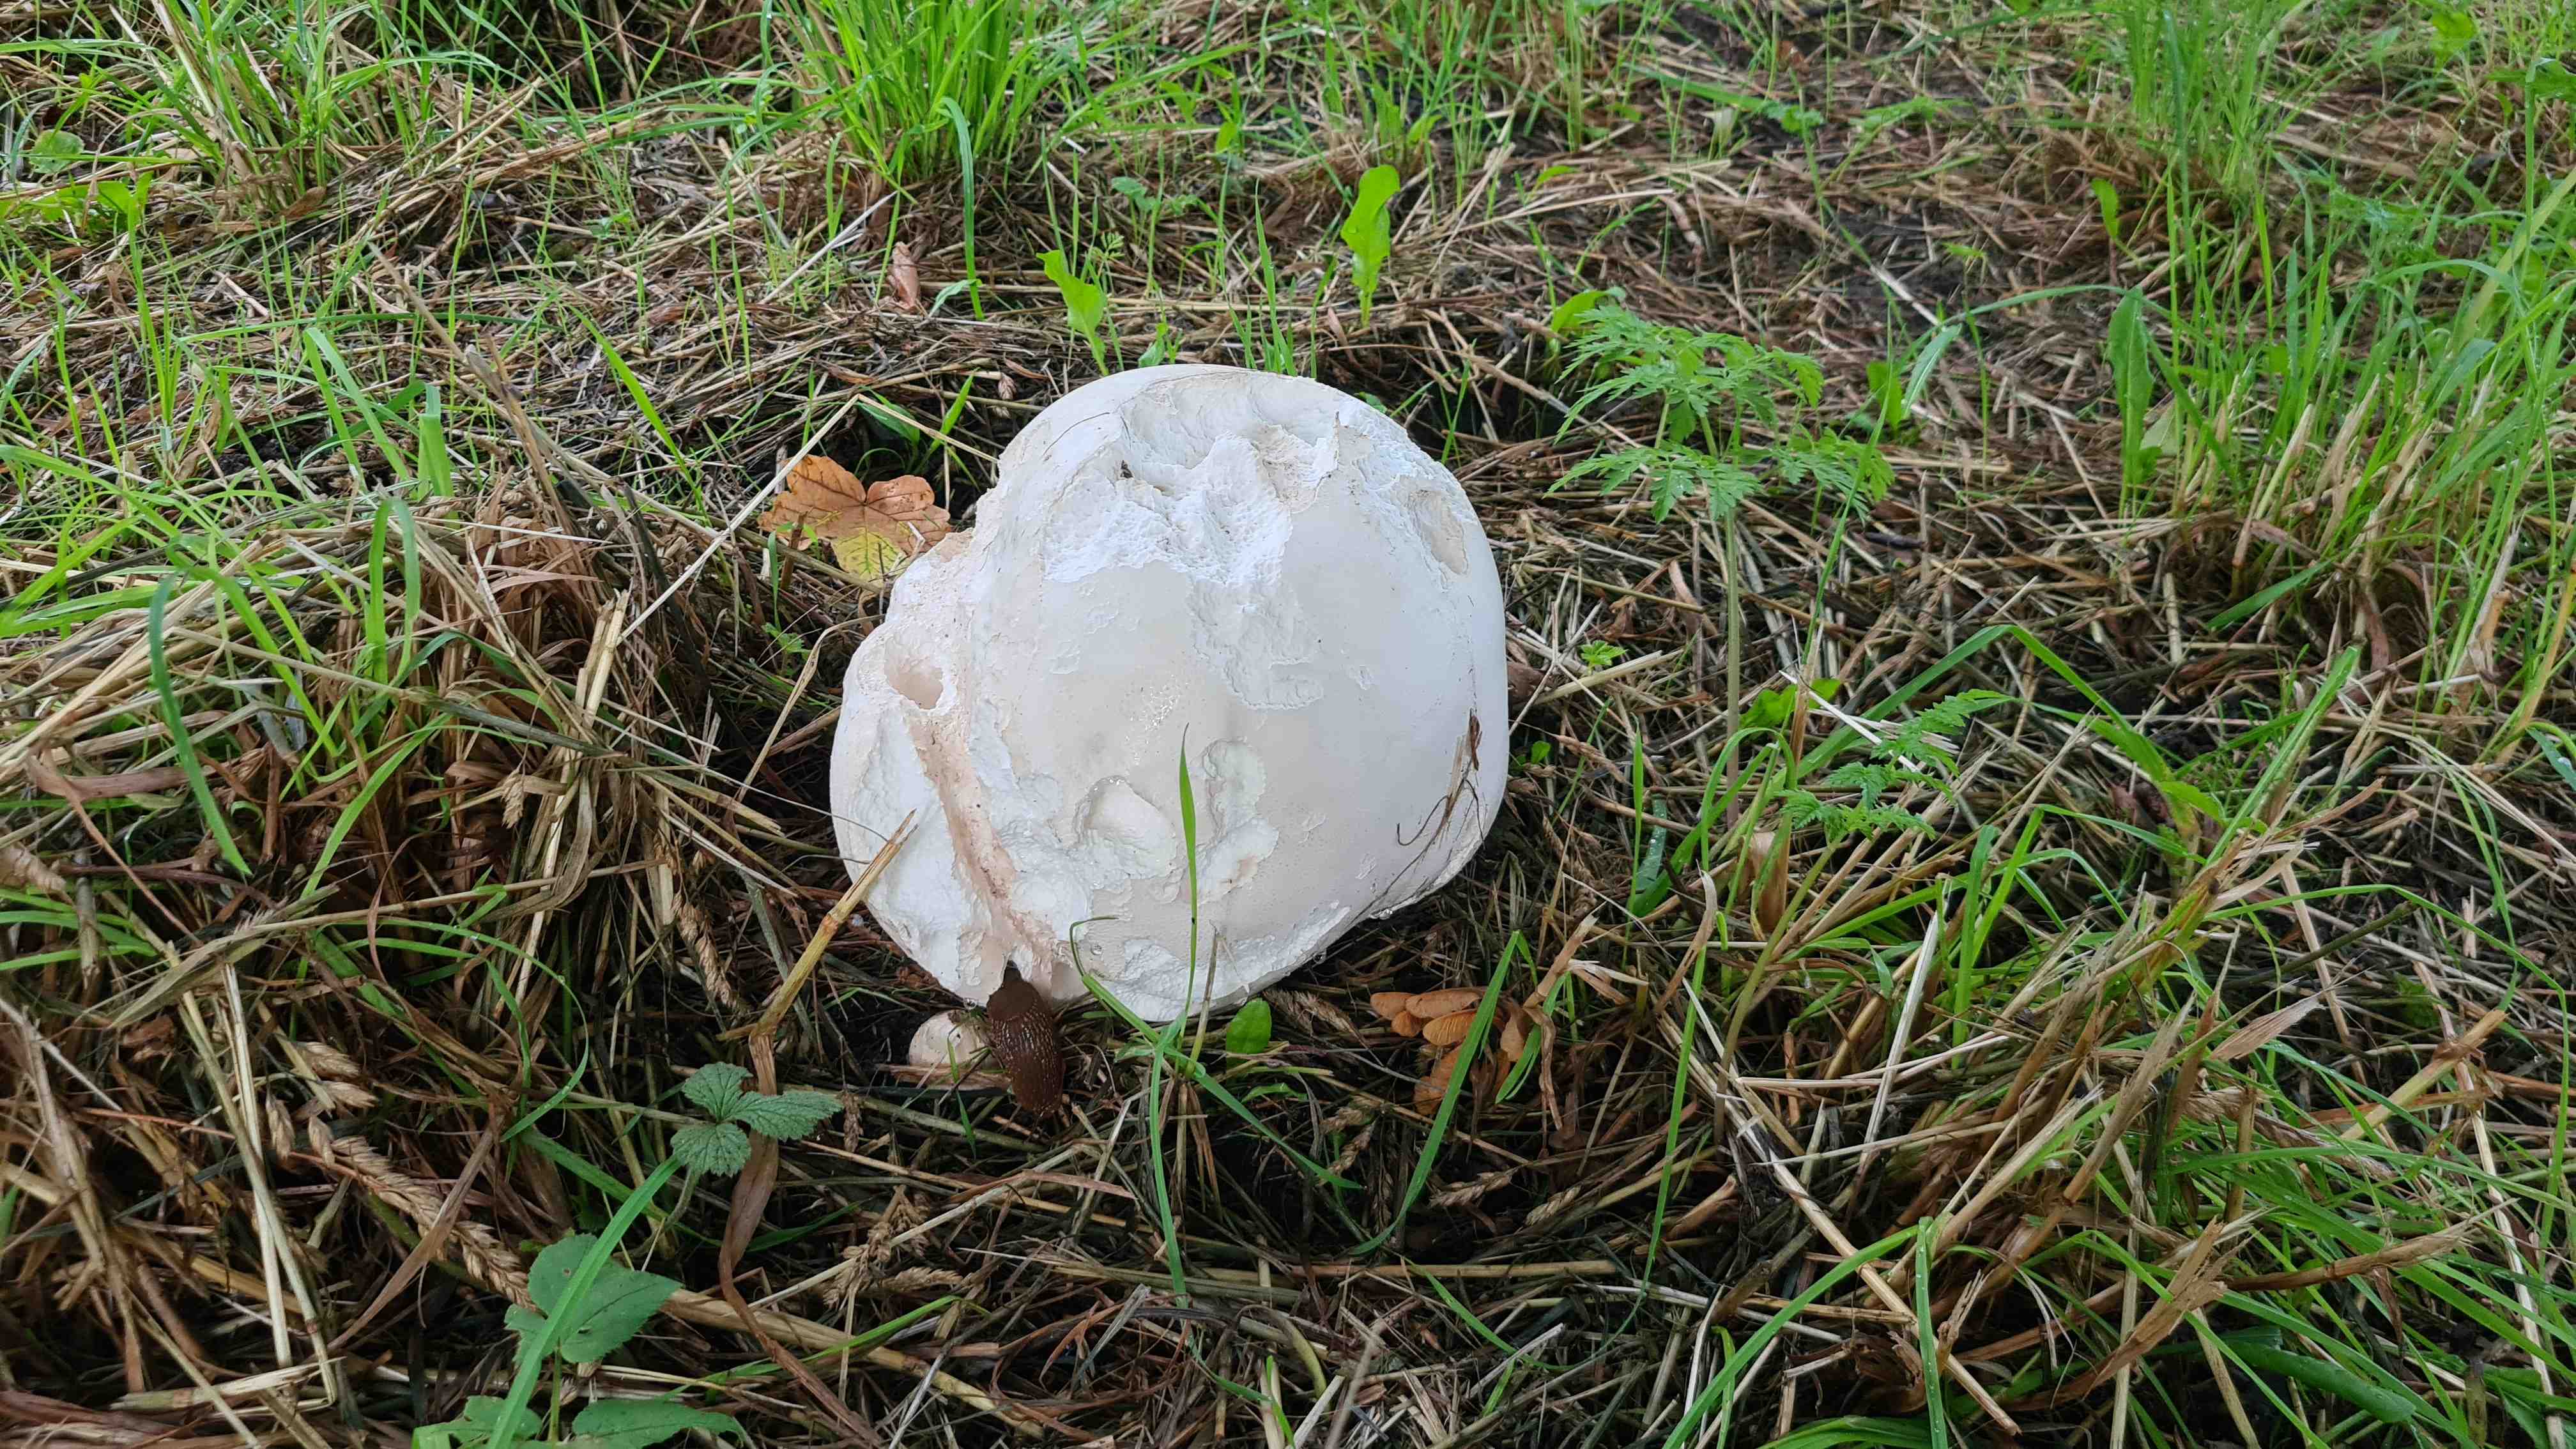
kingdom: Fungi
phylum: Basidiomycota
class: Agaricomycetes
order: Agaricales
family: Lycoperdaceae
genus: Calvatia
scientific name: Calvatia gigantea
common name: kæmpestøvbold
